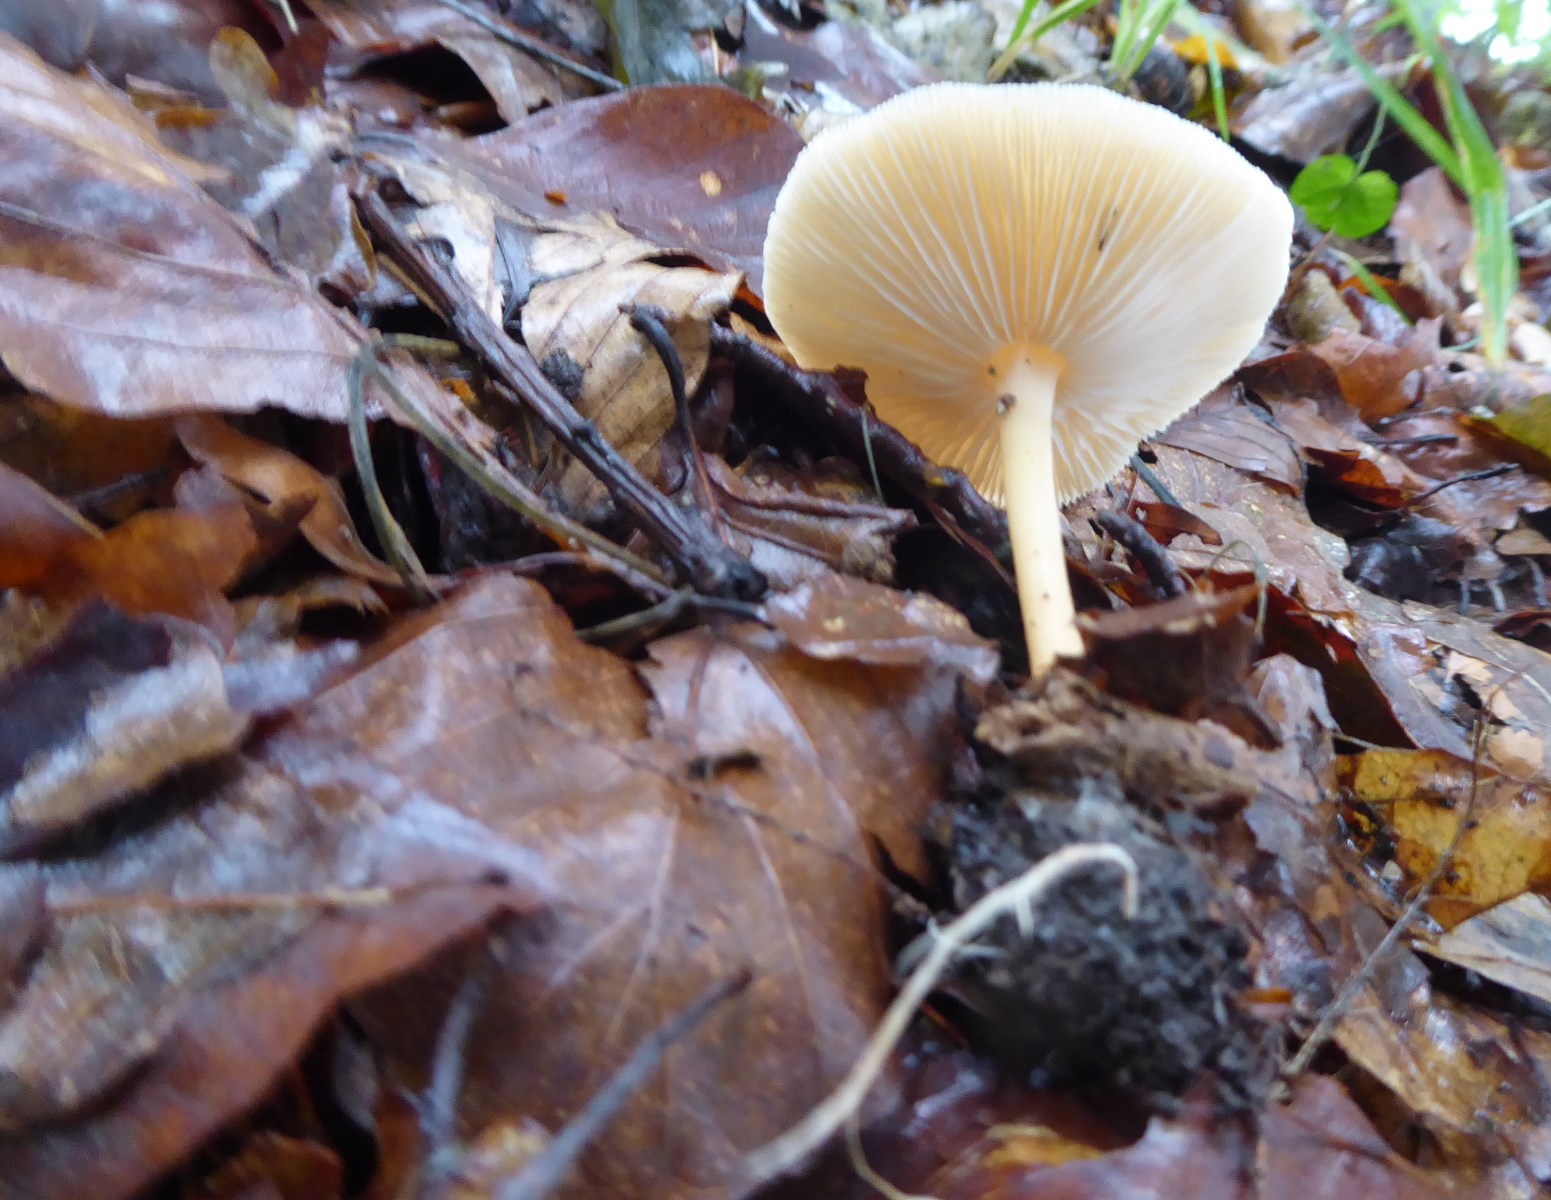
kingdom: Fungi
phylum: Basidiomycota
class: Agaricomycetes
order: Agaricales
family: Omphalotaceae
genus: Gymnopus
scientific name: Gymnopus dryophilus
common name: løv-fladhat
